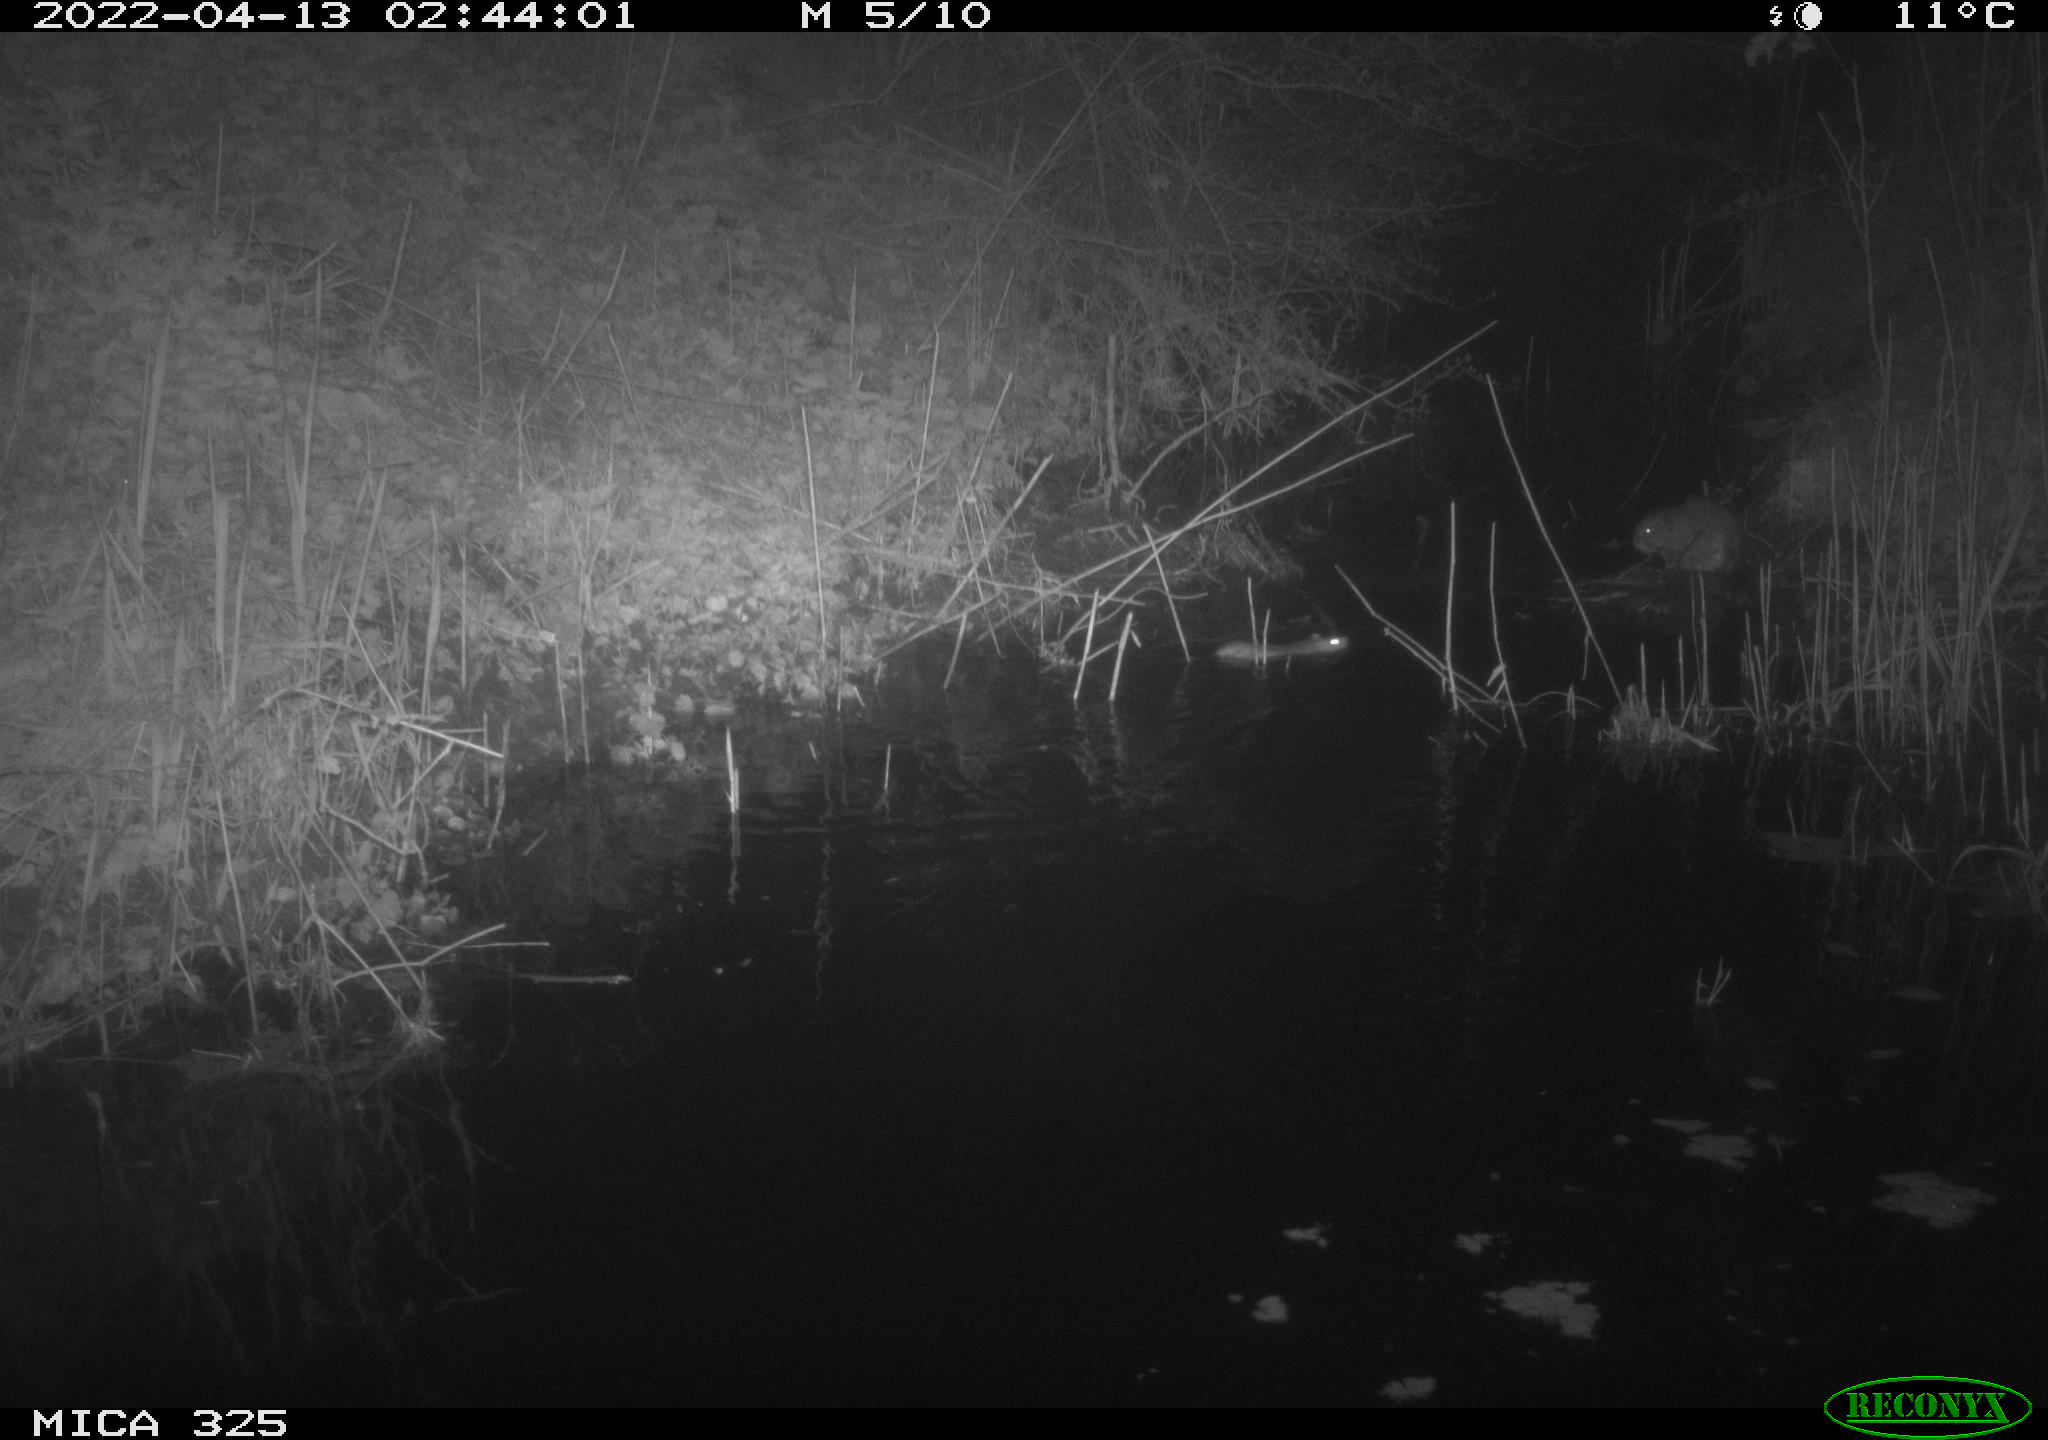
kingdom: Animalia
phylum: Chordata
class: Mammalia
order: Rodentia
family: Muridae
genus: Rattus
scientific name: Rattus norvegicus
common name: Brown rat
